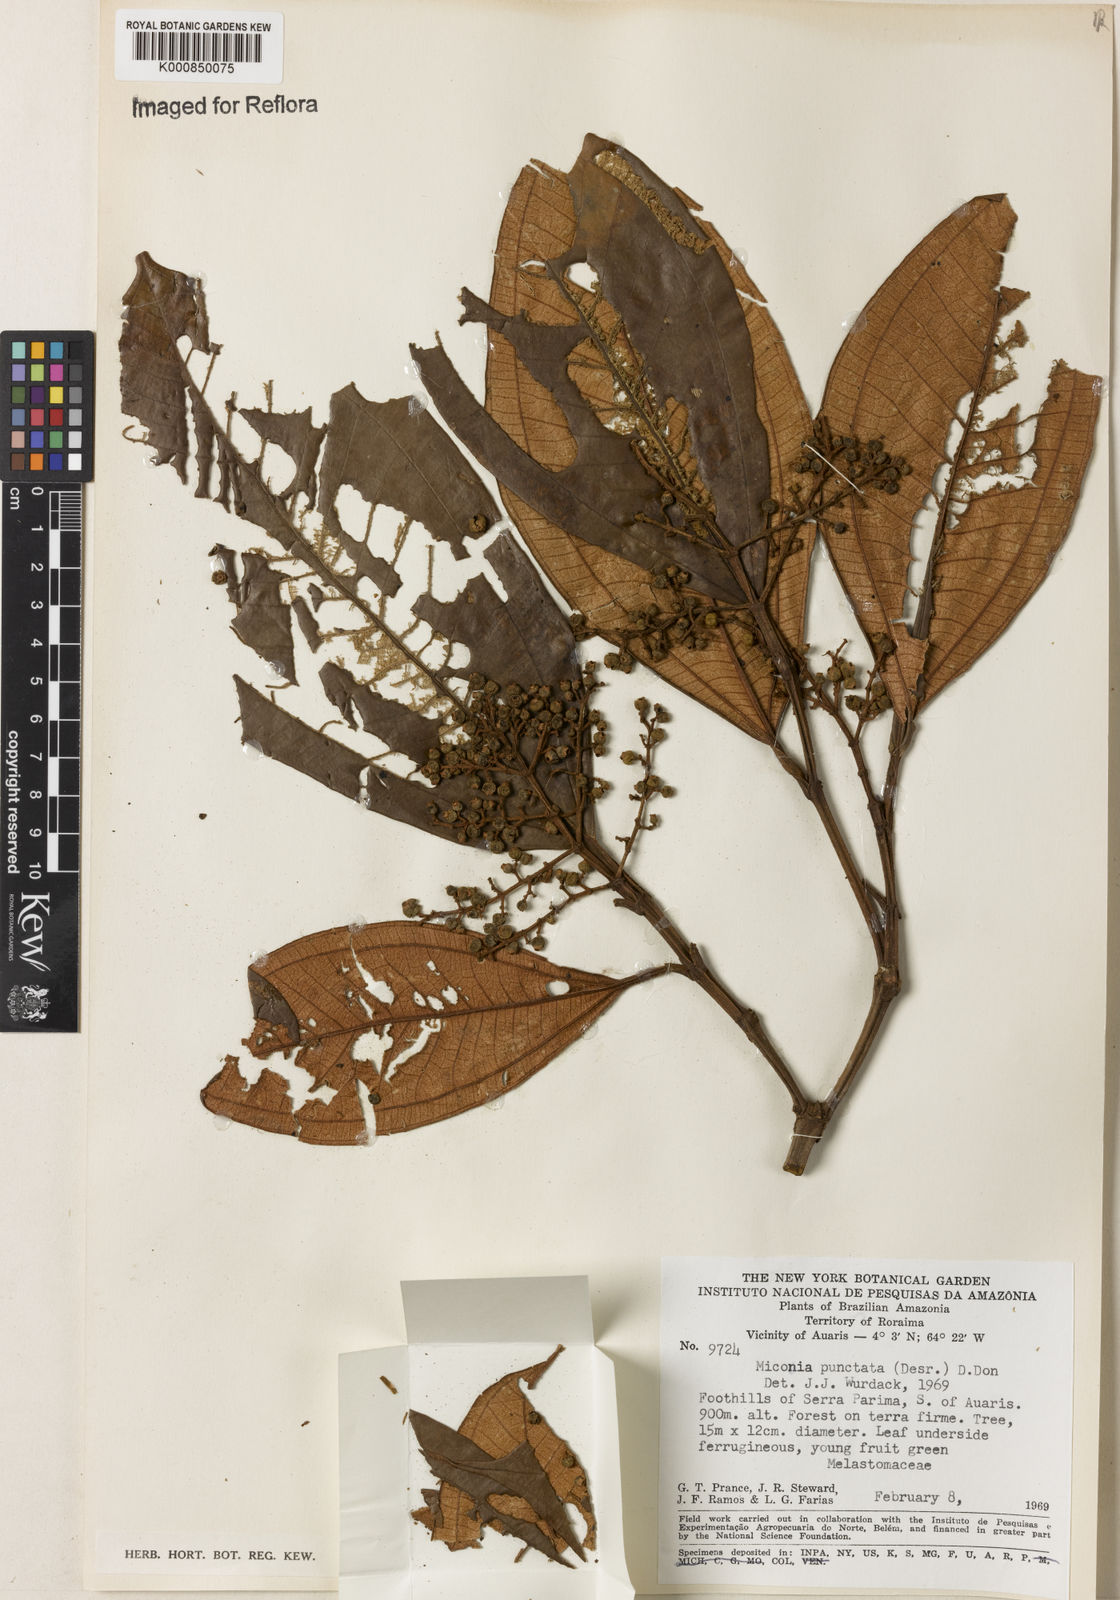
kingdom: Plantae
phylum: Tracheophyta
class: Magnoliopsida
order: Myrtales
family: Melastomataceae
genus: Miconia
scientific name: Miconia elata
